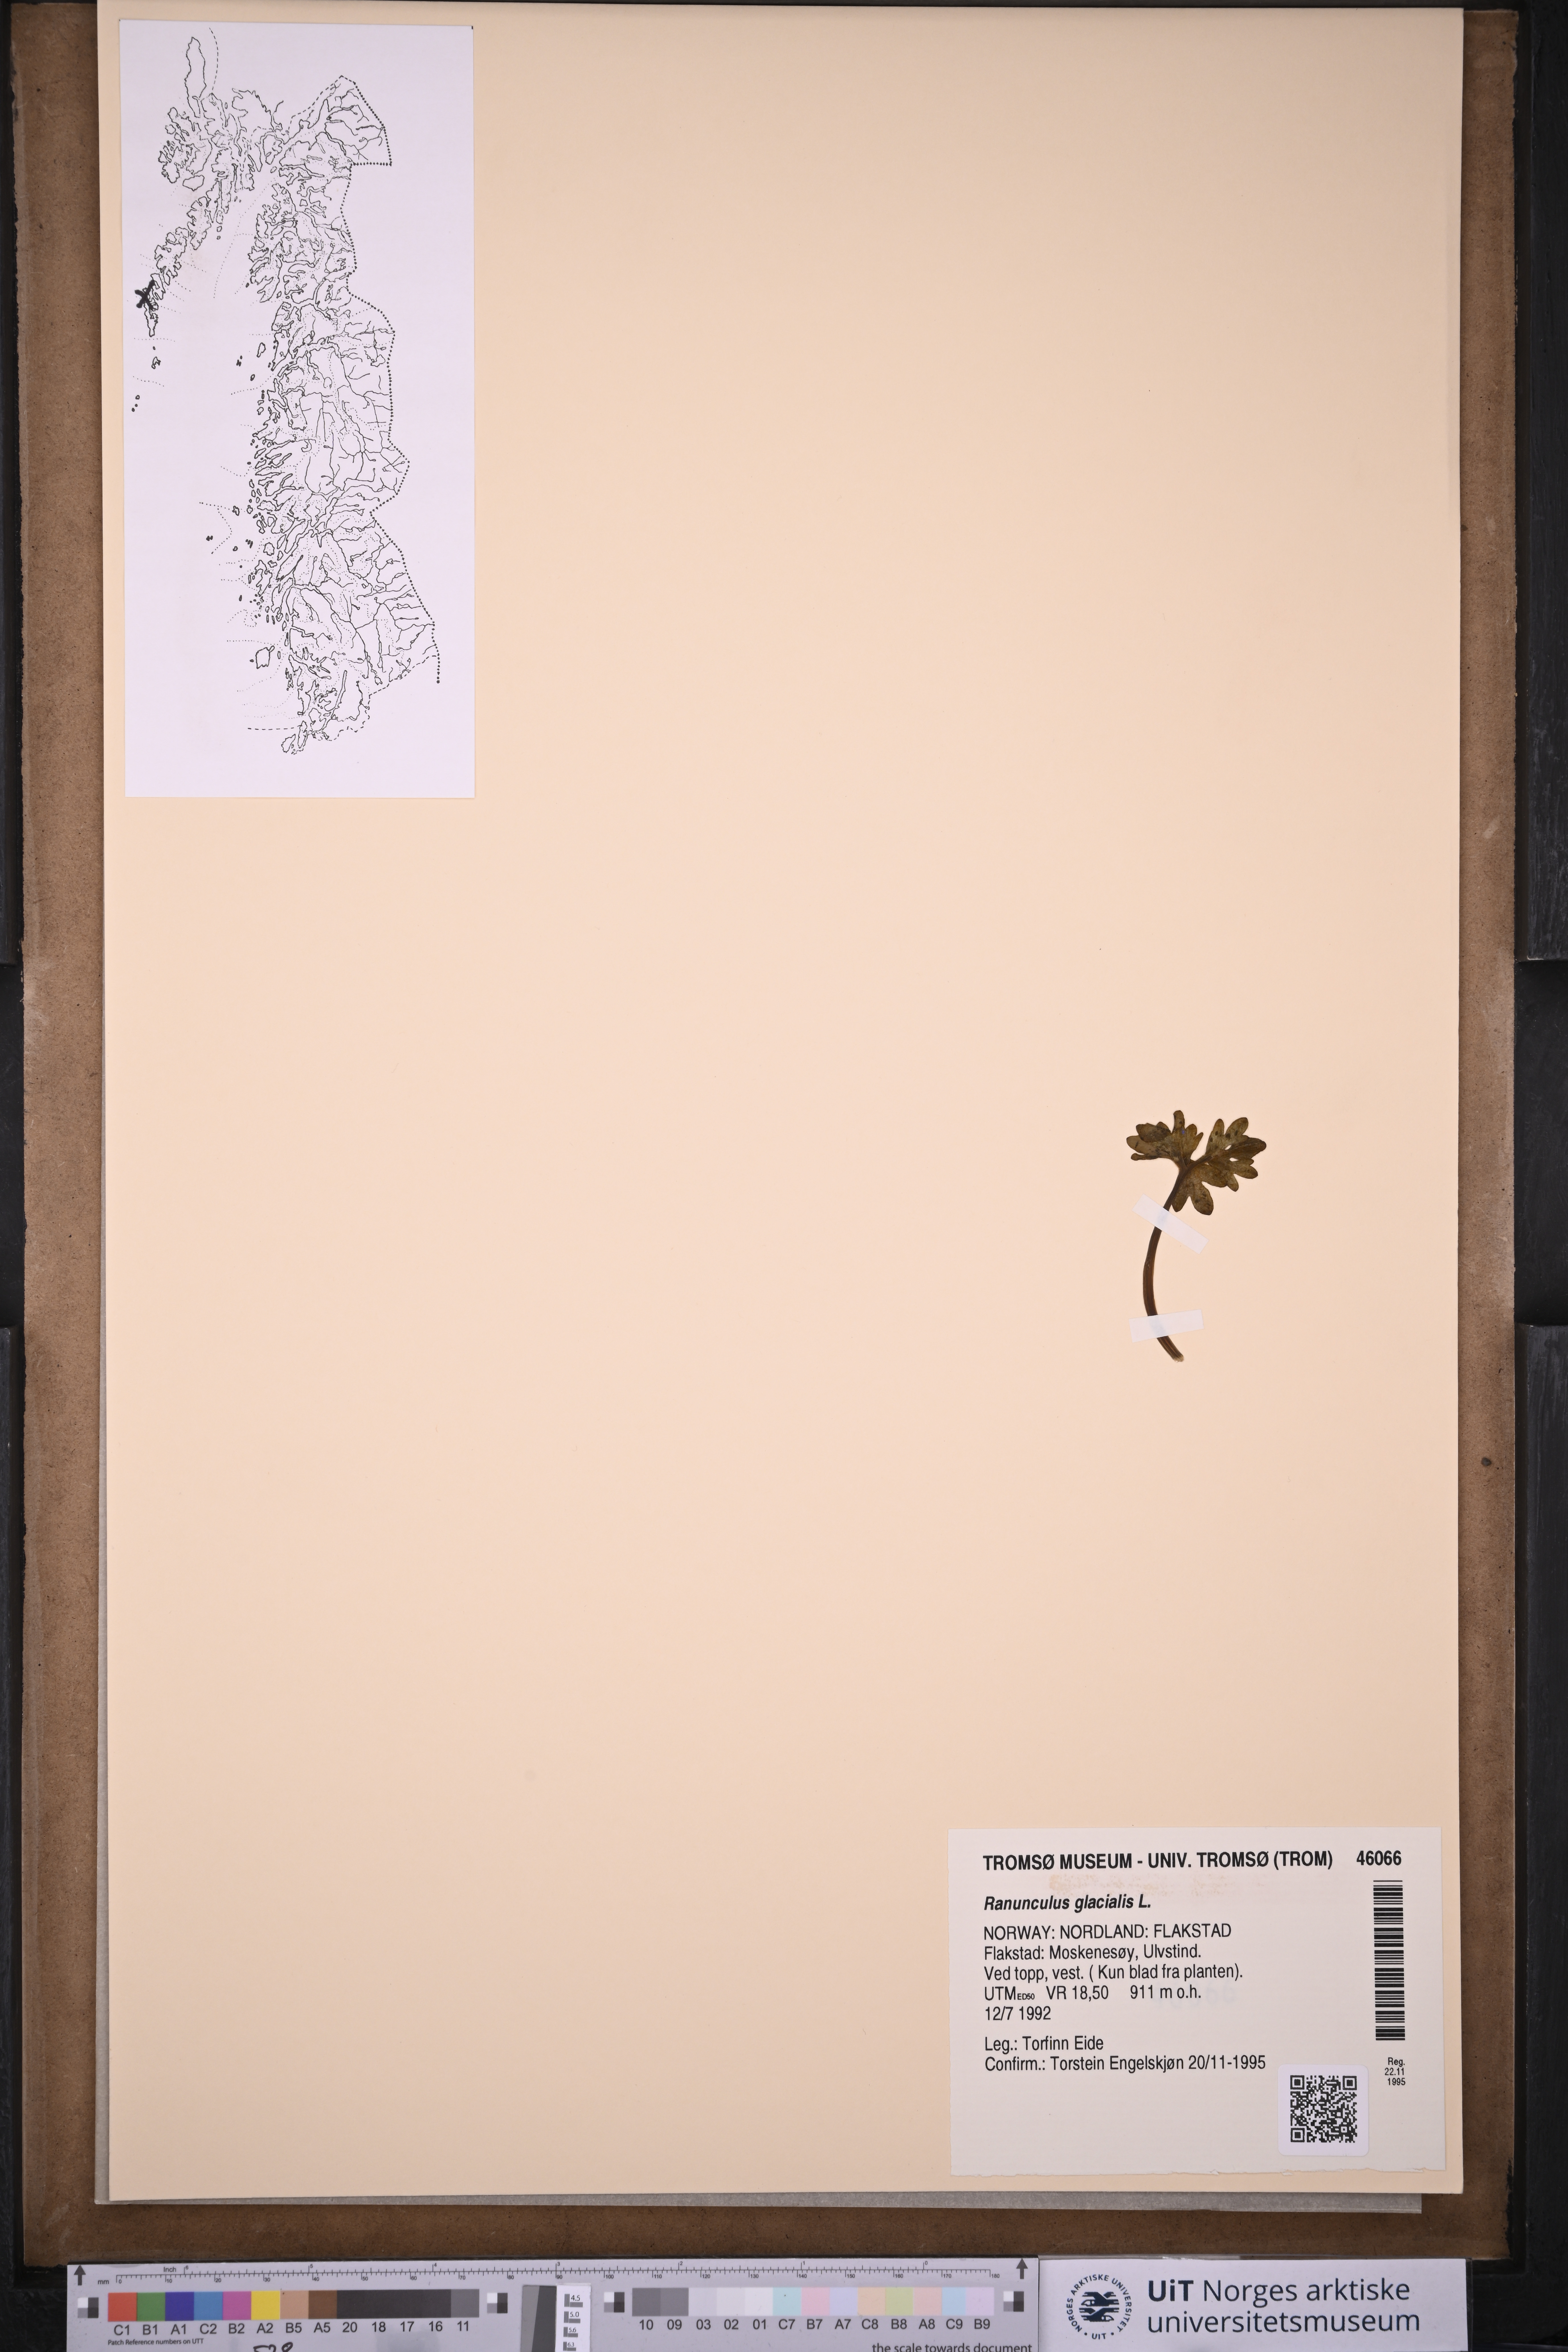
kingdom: Plantae
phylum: Tracheophyta
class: Magnoliopsida
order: Ranunculales
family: Ranunculaceae
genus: Ranunculus
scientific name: Ranunculus glacialis
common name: Glacier buttercup
